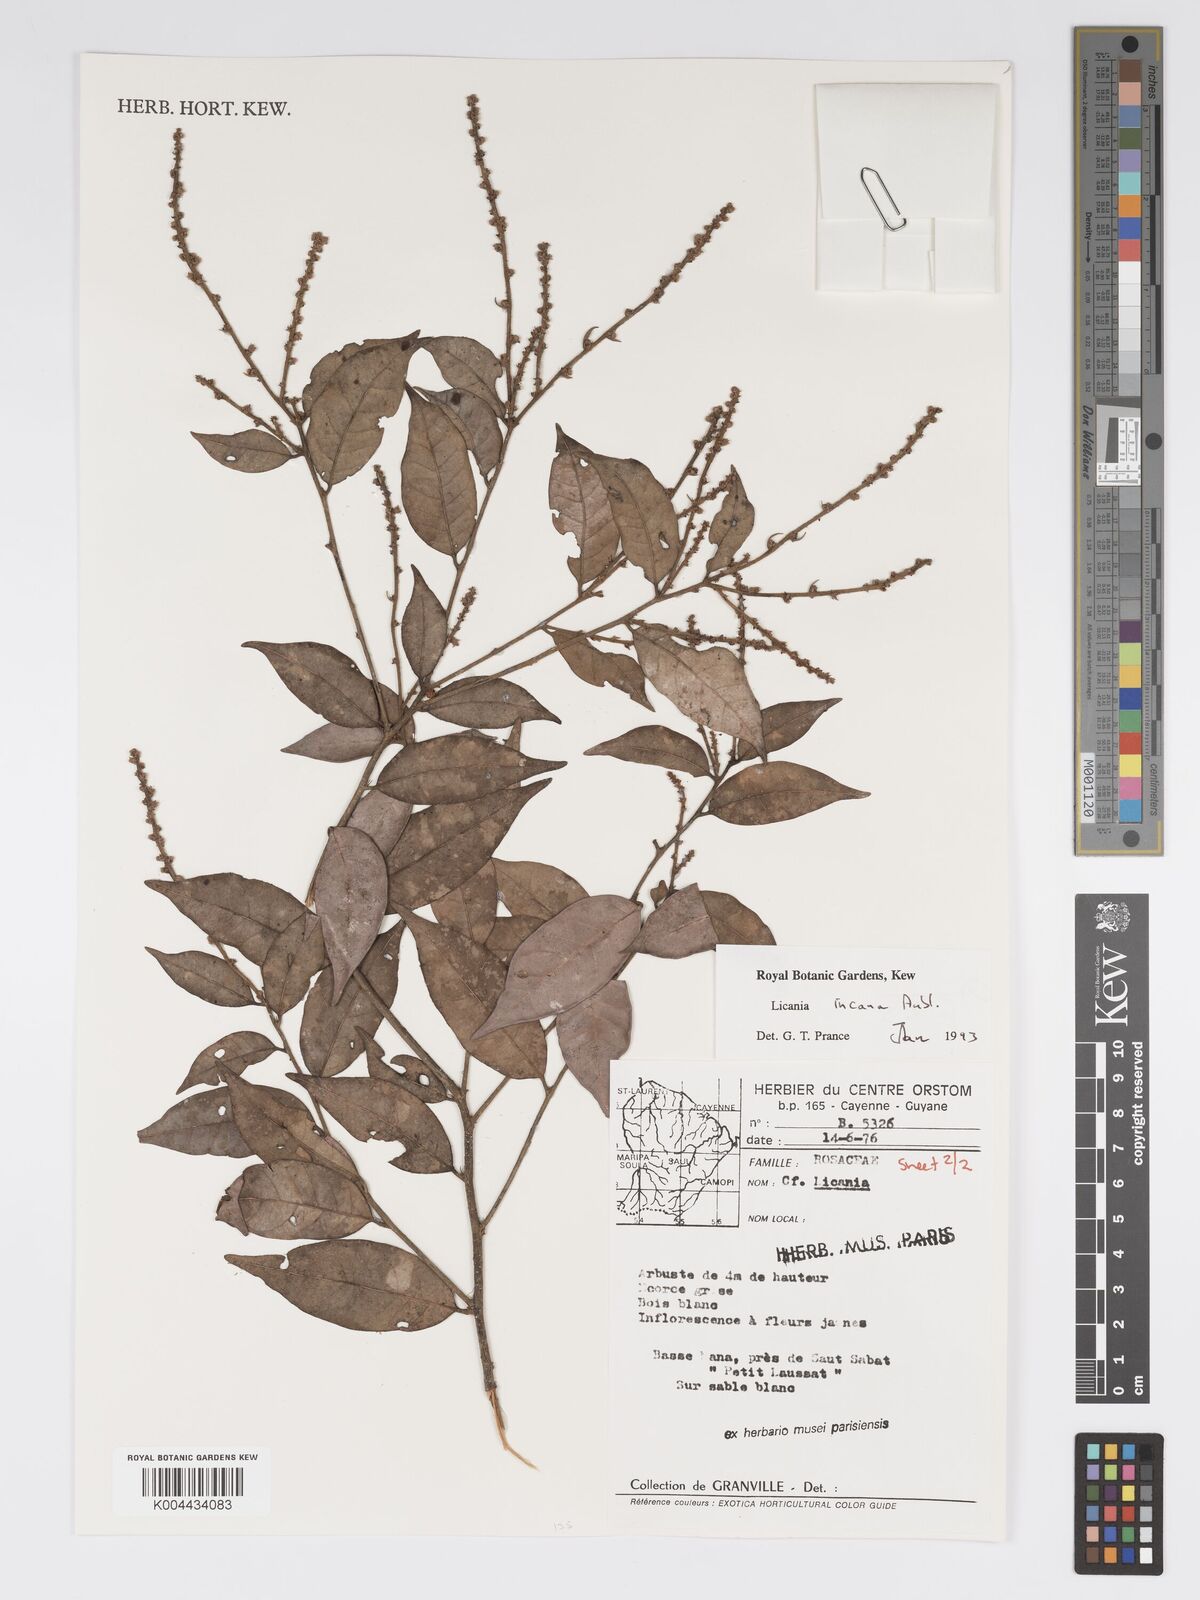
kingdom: Plantae
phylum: Tracheophyta
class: Magnoliopsida
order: Malpighiales
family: Chrysobalanaceae
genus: Licania
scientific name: Licania incana
